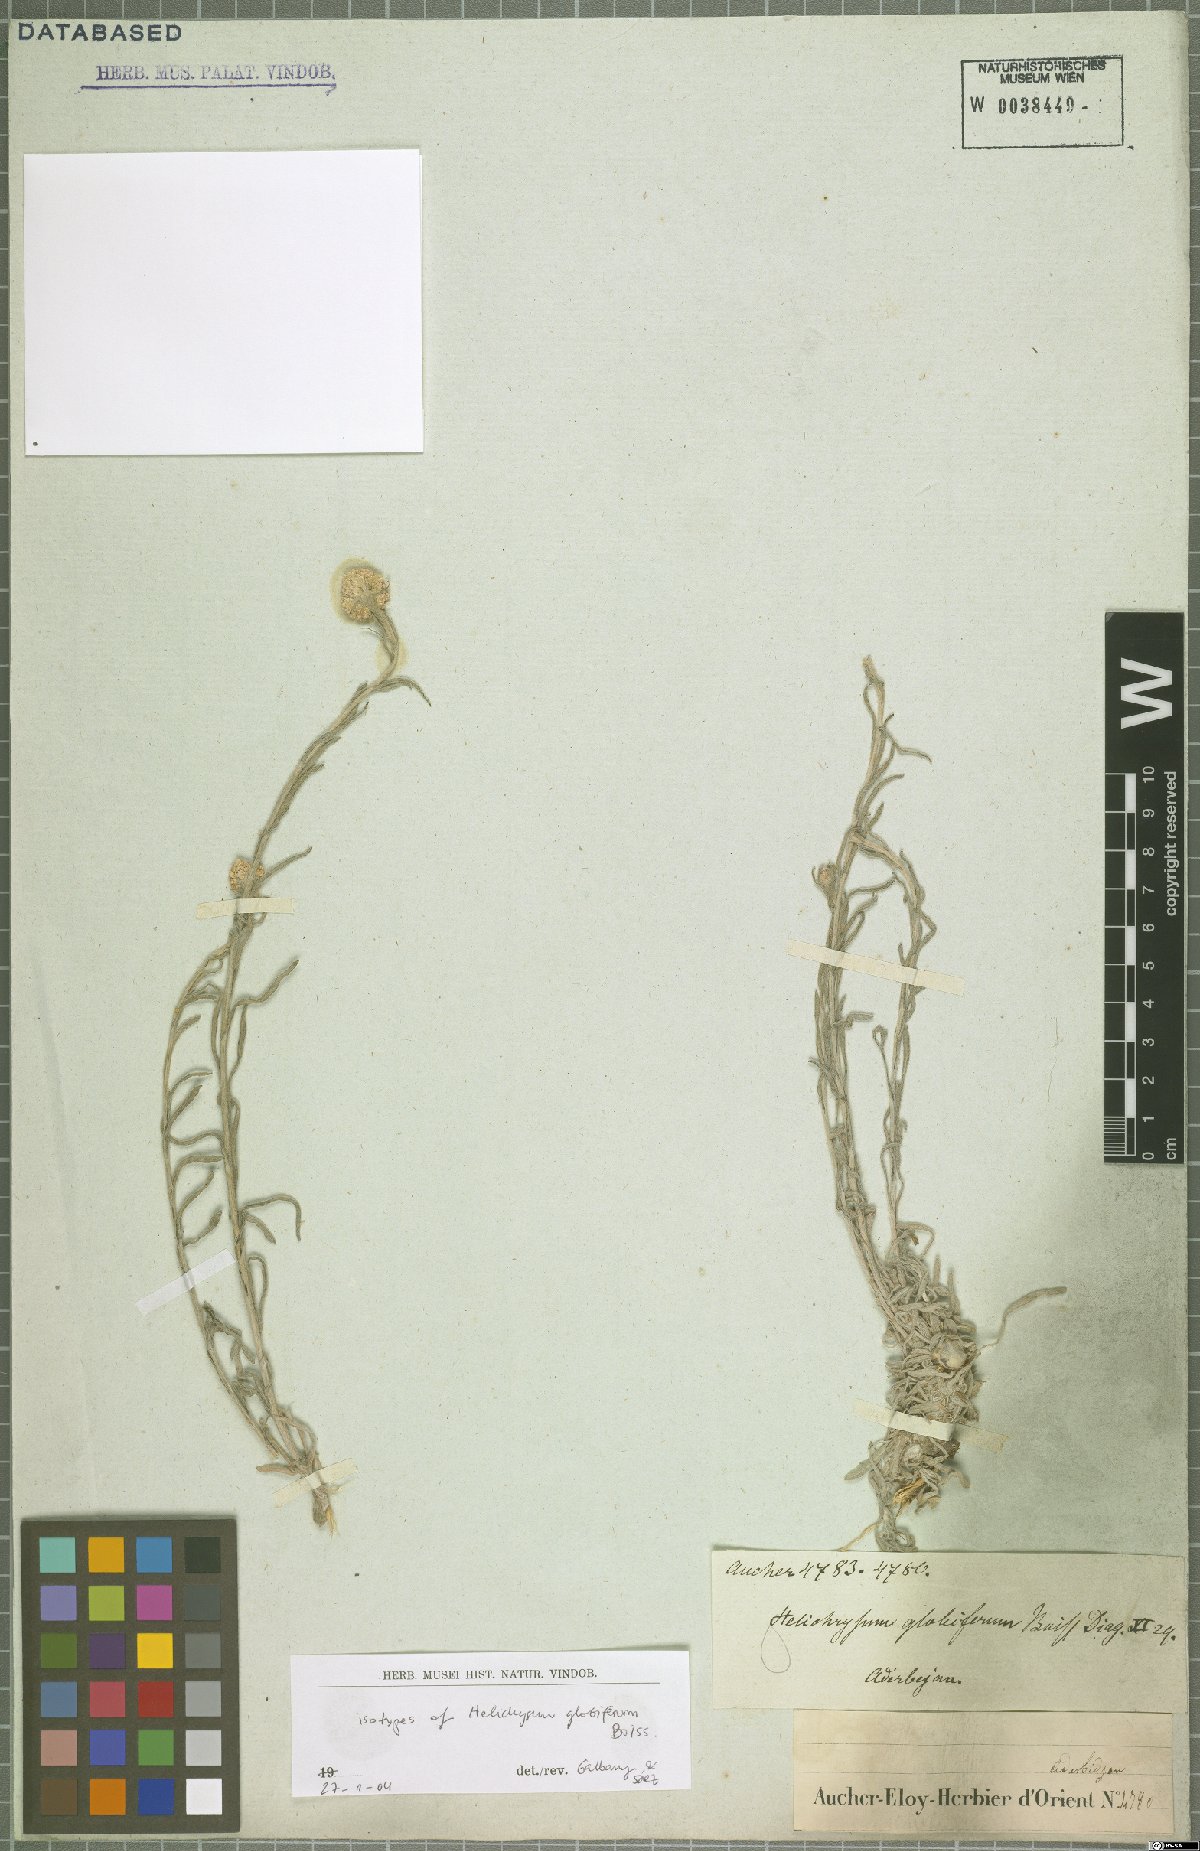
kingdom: Plantae
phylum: Tracheophyta
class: Magnoliopsida
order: Asterales
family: Asteraceae
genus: Helichrysum
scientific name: Helichrysum globiferum
